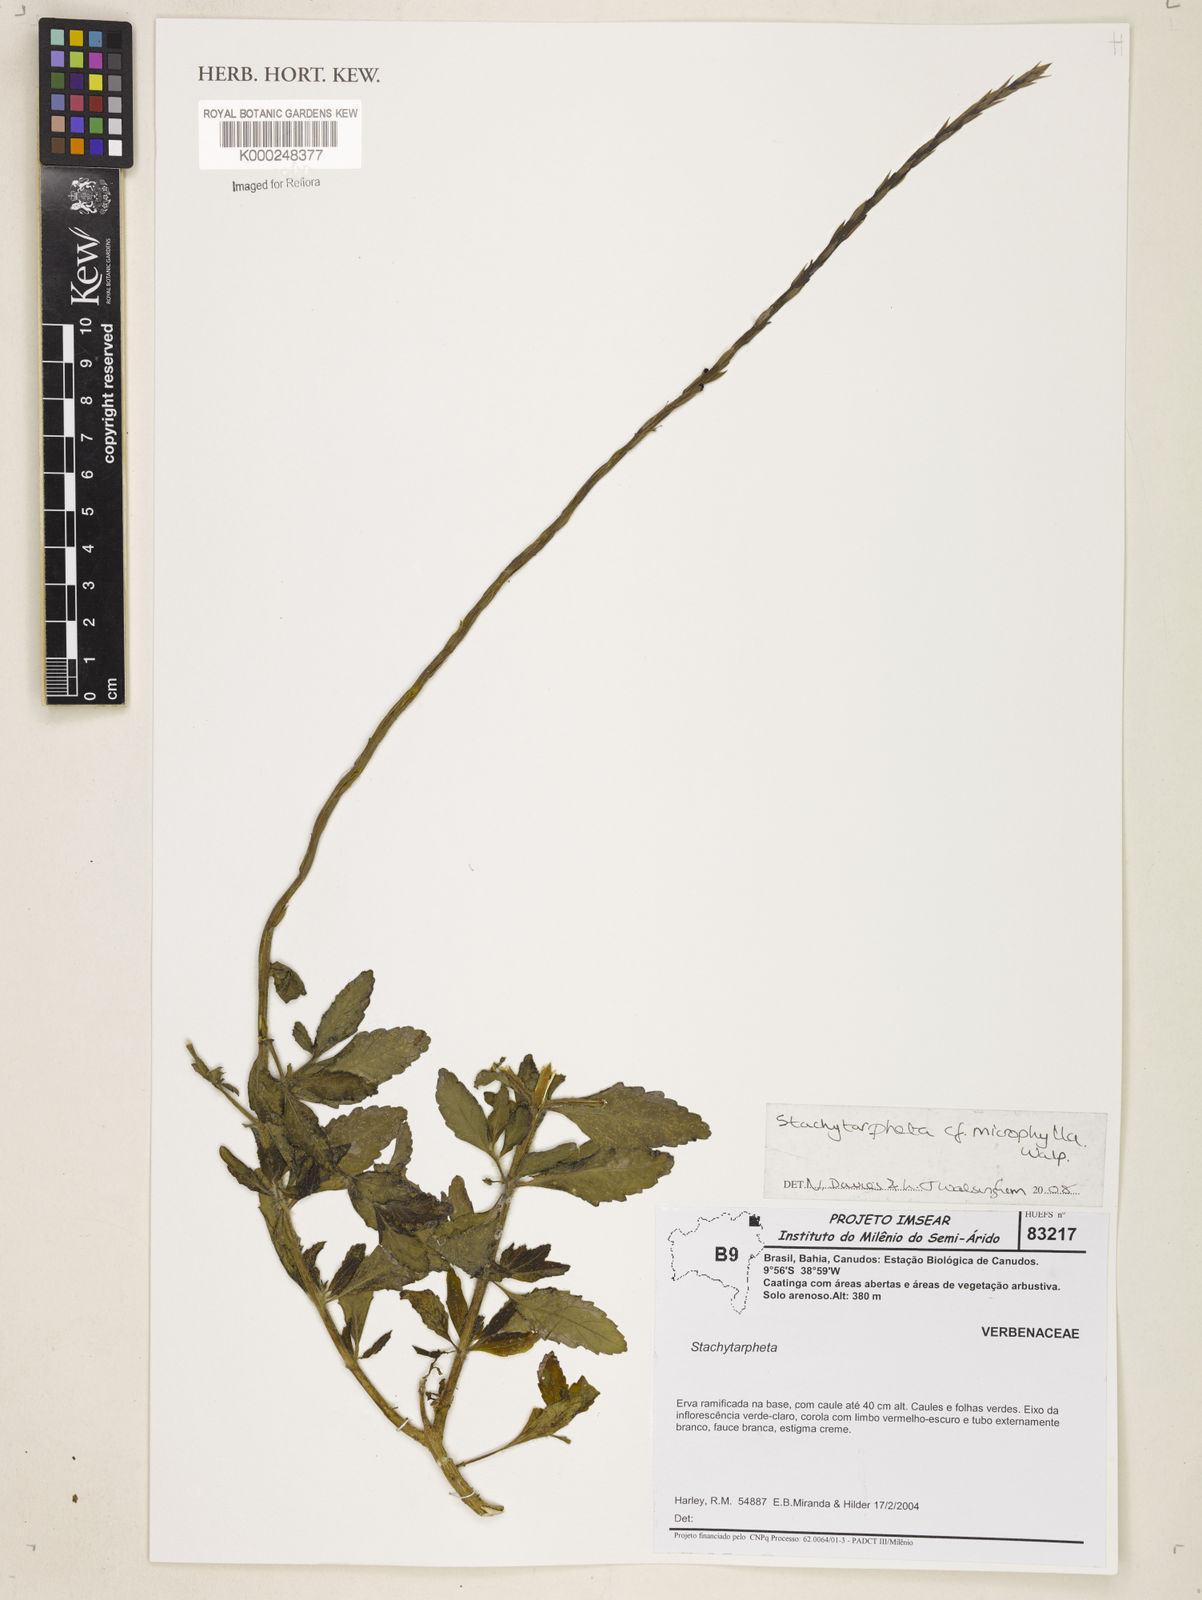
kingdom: Plantae
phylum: Tracheophyta
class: Magnoliopsida
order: Lamiales
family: Verbenaceae
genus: Stachytarpheta
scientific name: Stachytarpheta microphylla
